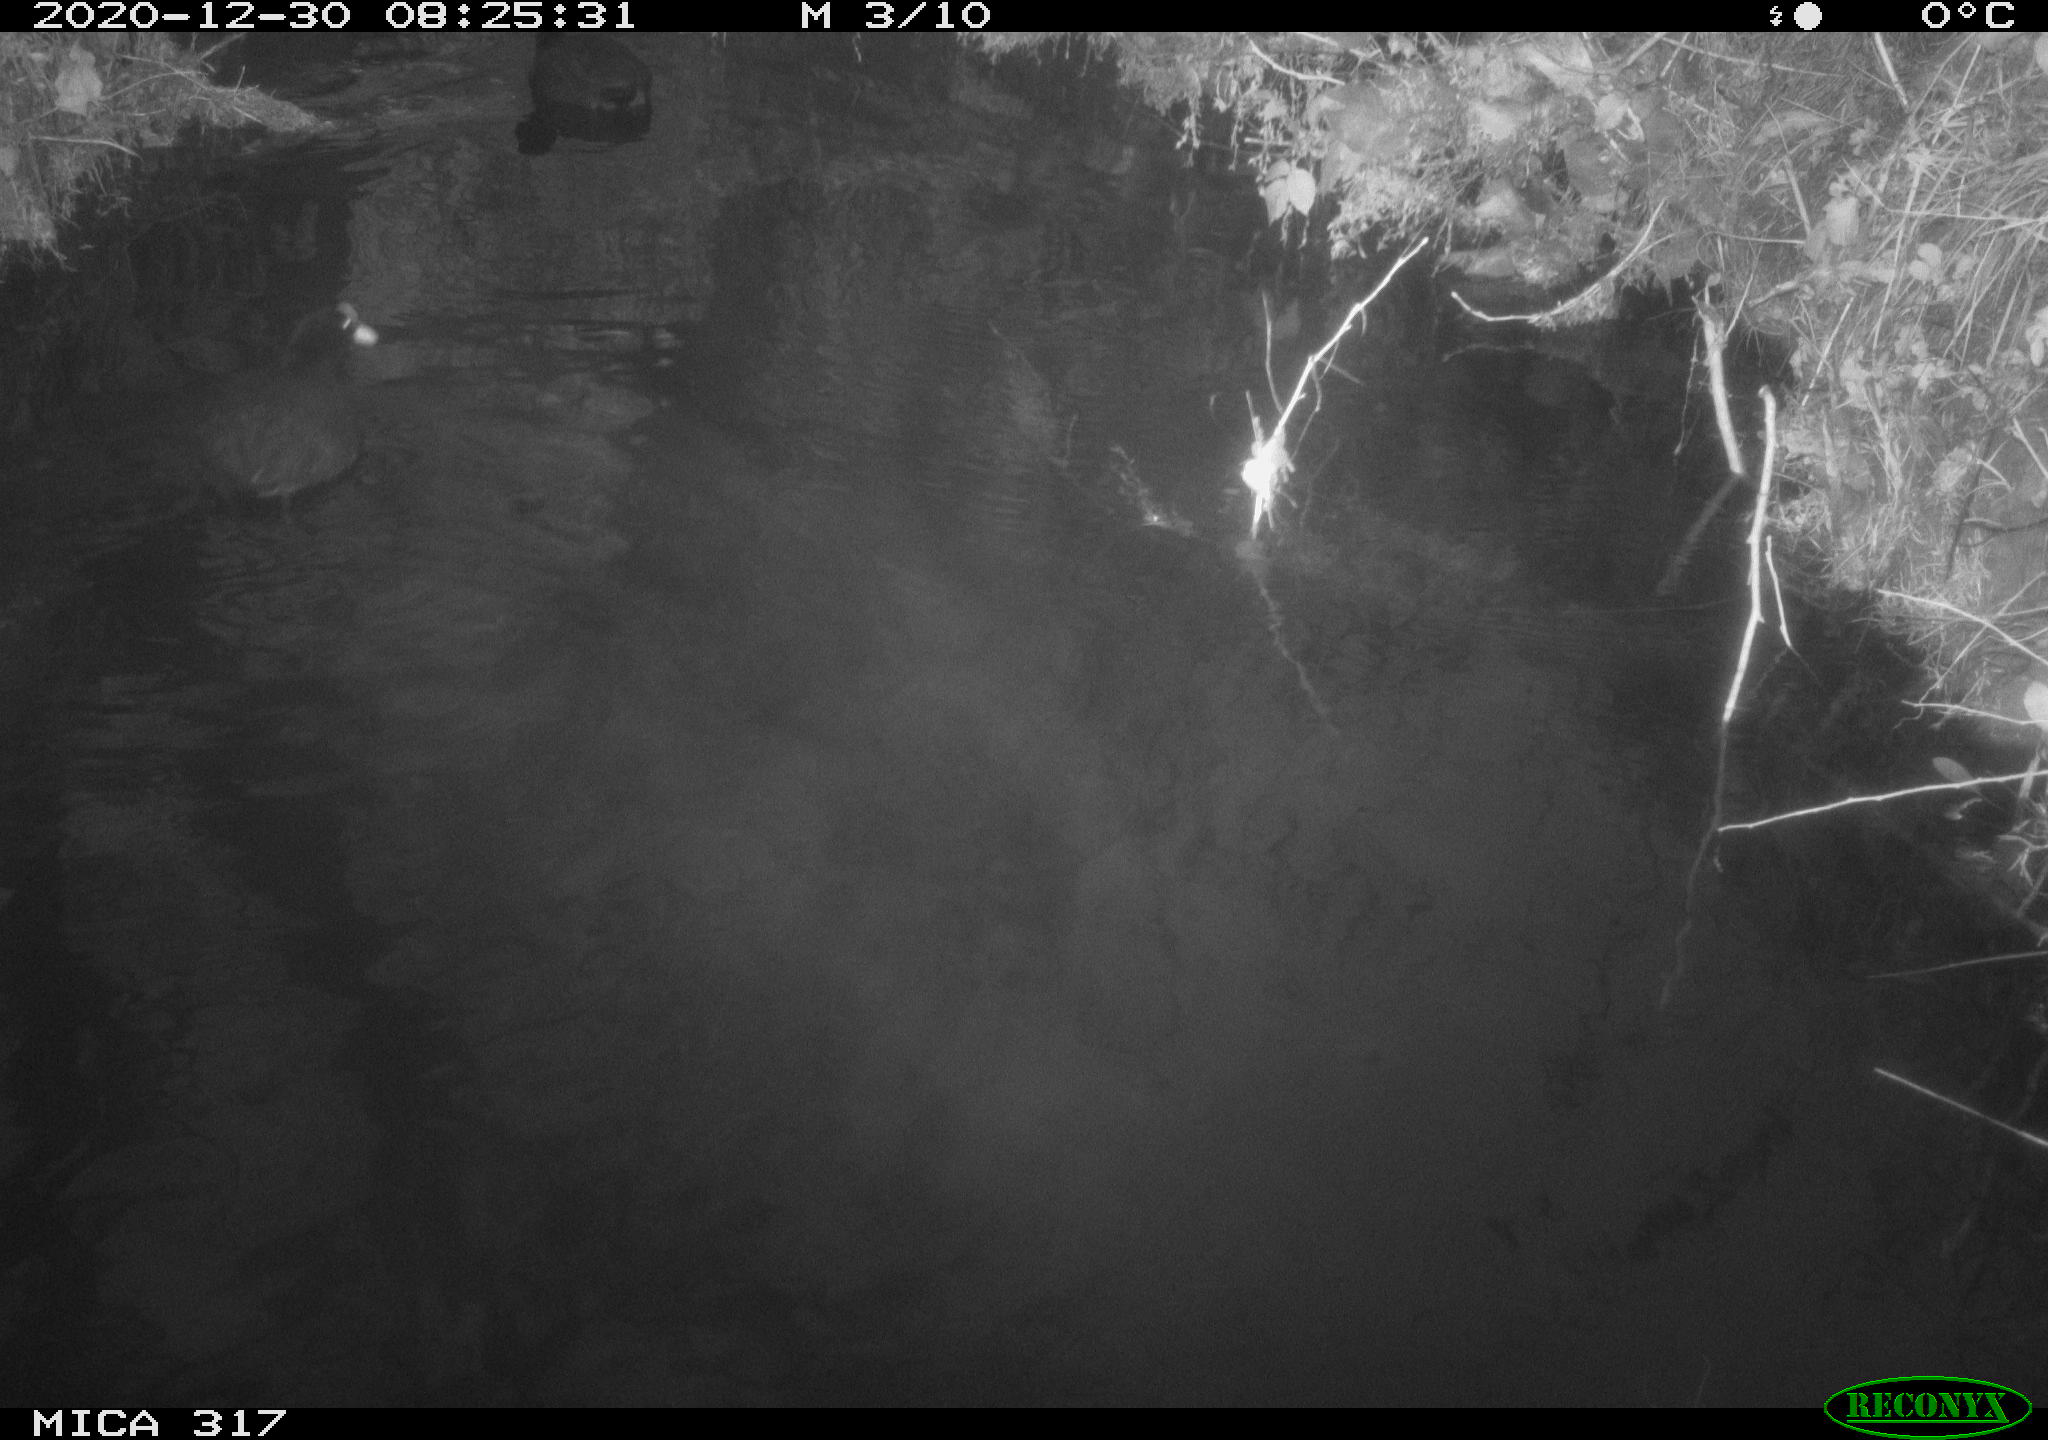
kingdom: Animalia
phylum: Chordata
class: Aves
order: Gruiformes
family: Rallidae
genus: Fulica
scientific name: Fulica atra
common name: Eurasian coot
